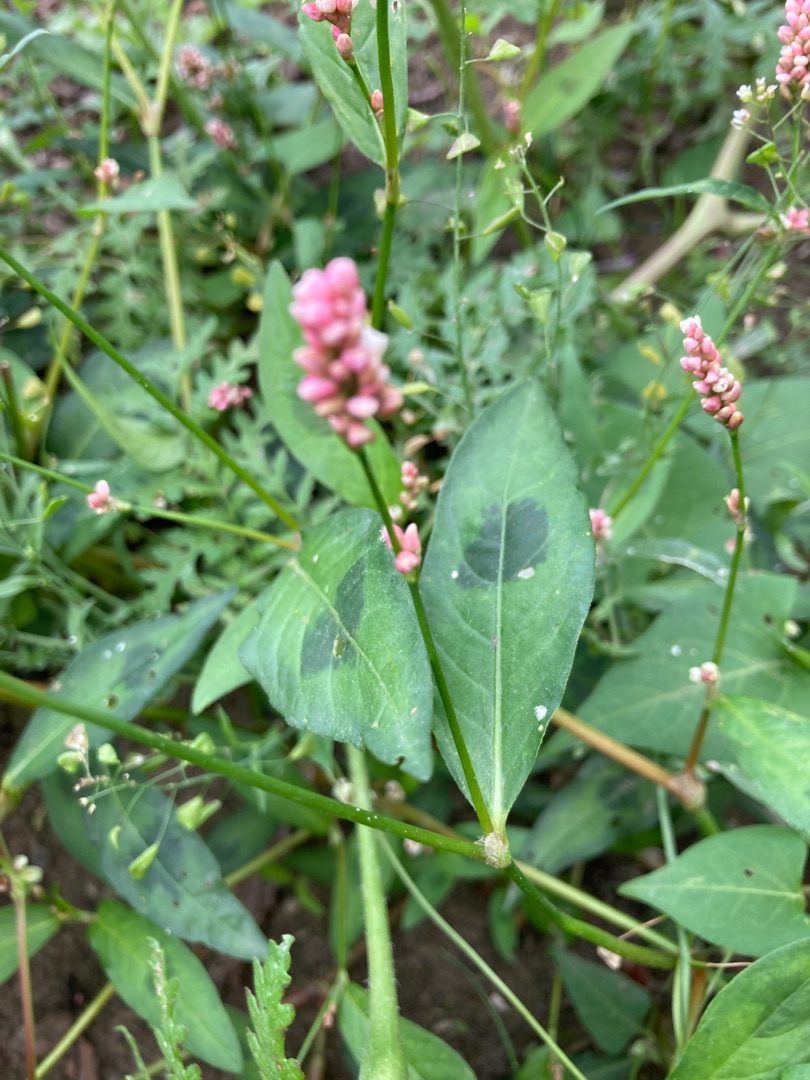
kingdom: Plantae
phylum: Tracheophyta
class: Magnoliopsida
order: Caryophyllales
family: Polygonaceae
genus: Persicaria
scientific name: Persicaria maculosa
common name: Fersken-pileurt
